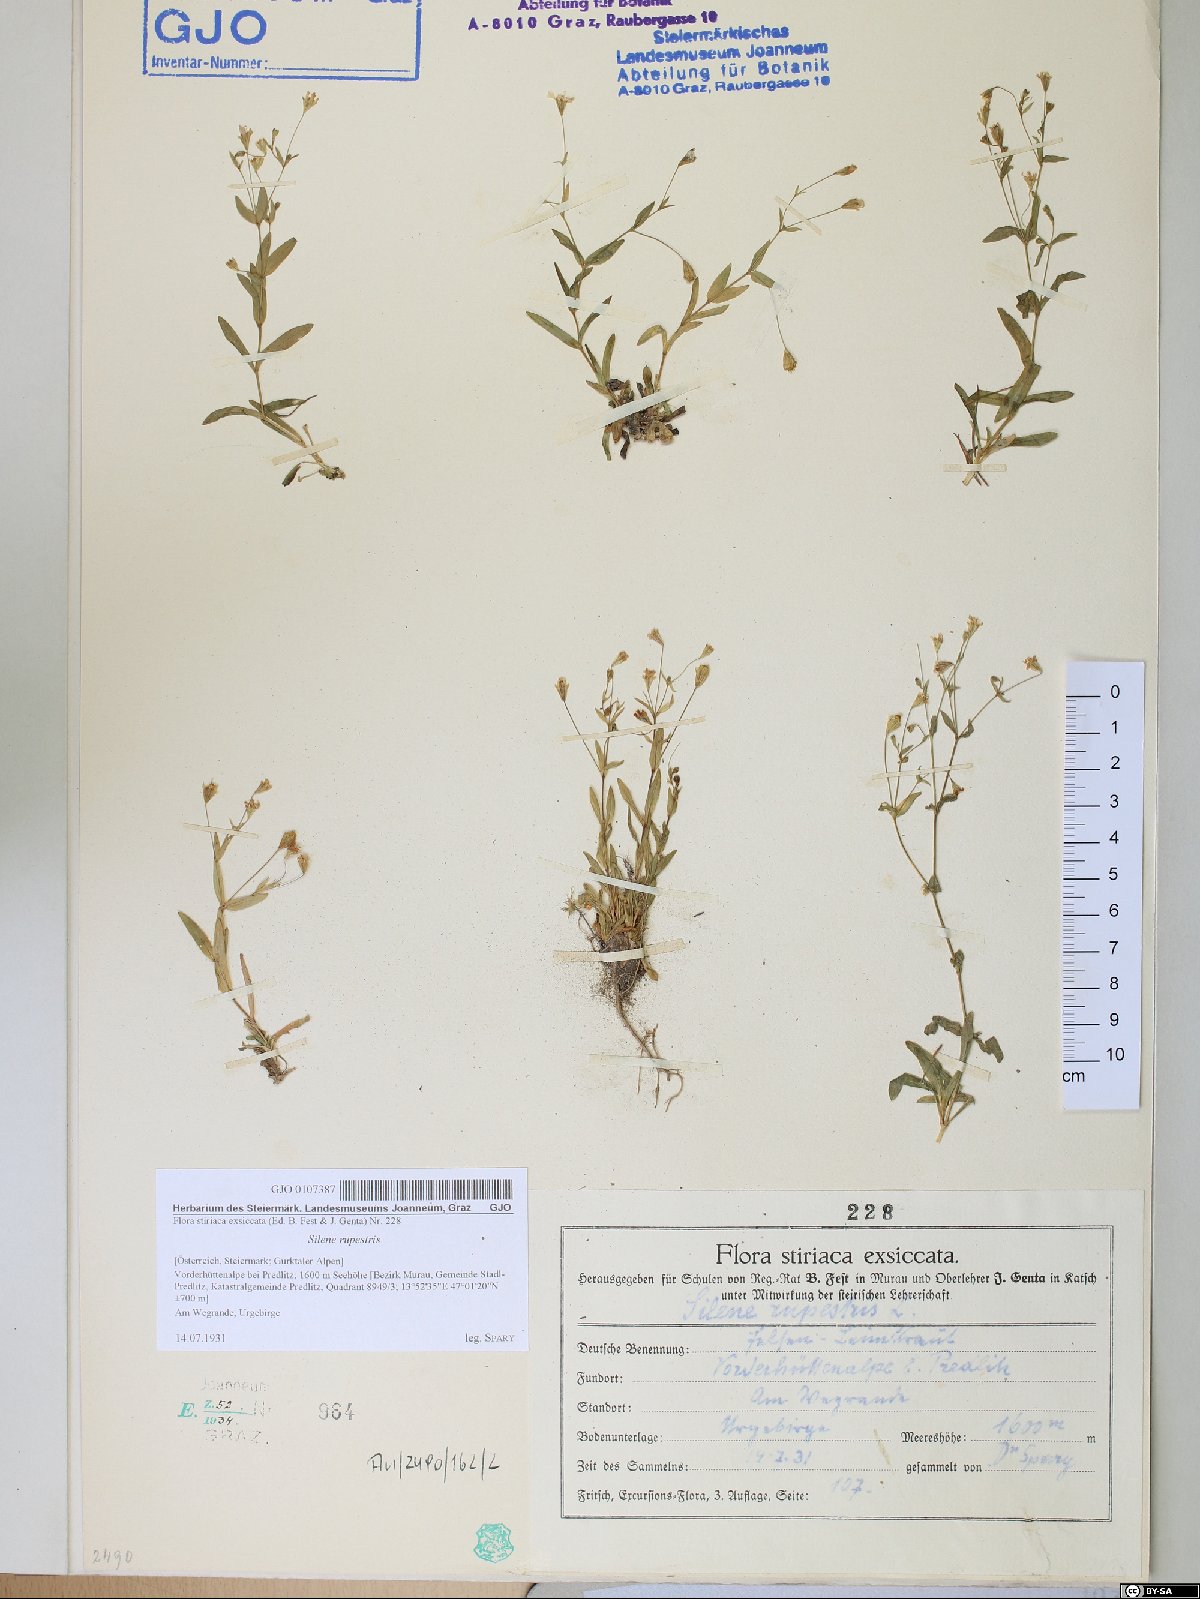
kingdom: Plantae
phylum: Tracheophyta
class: Magnoliopsida
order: Caryophyllales
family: Caryophyllaceae
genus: Atocion
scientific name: Atocion rupestre
